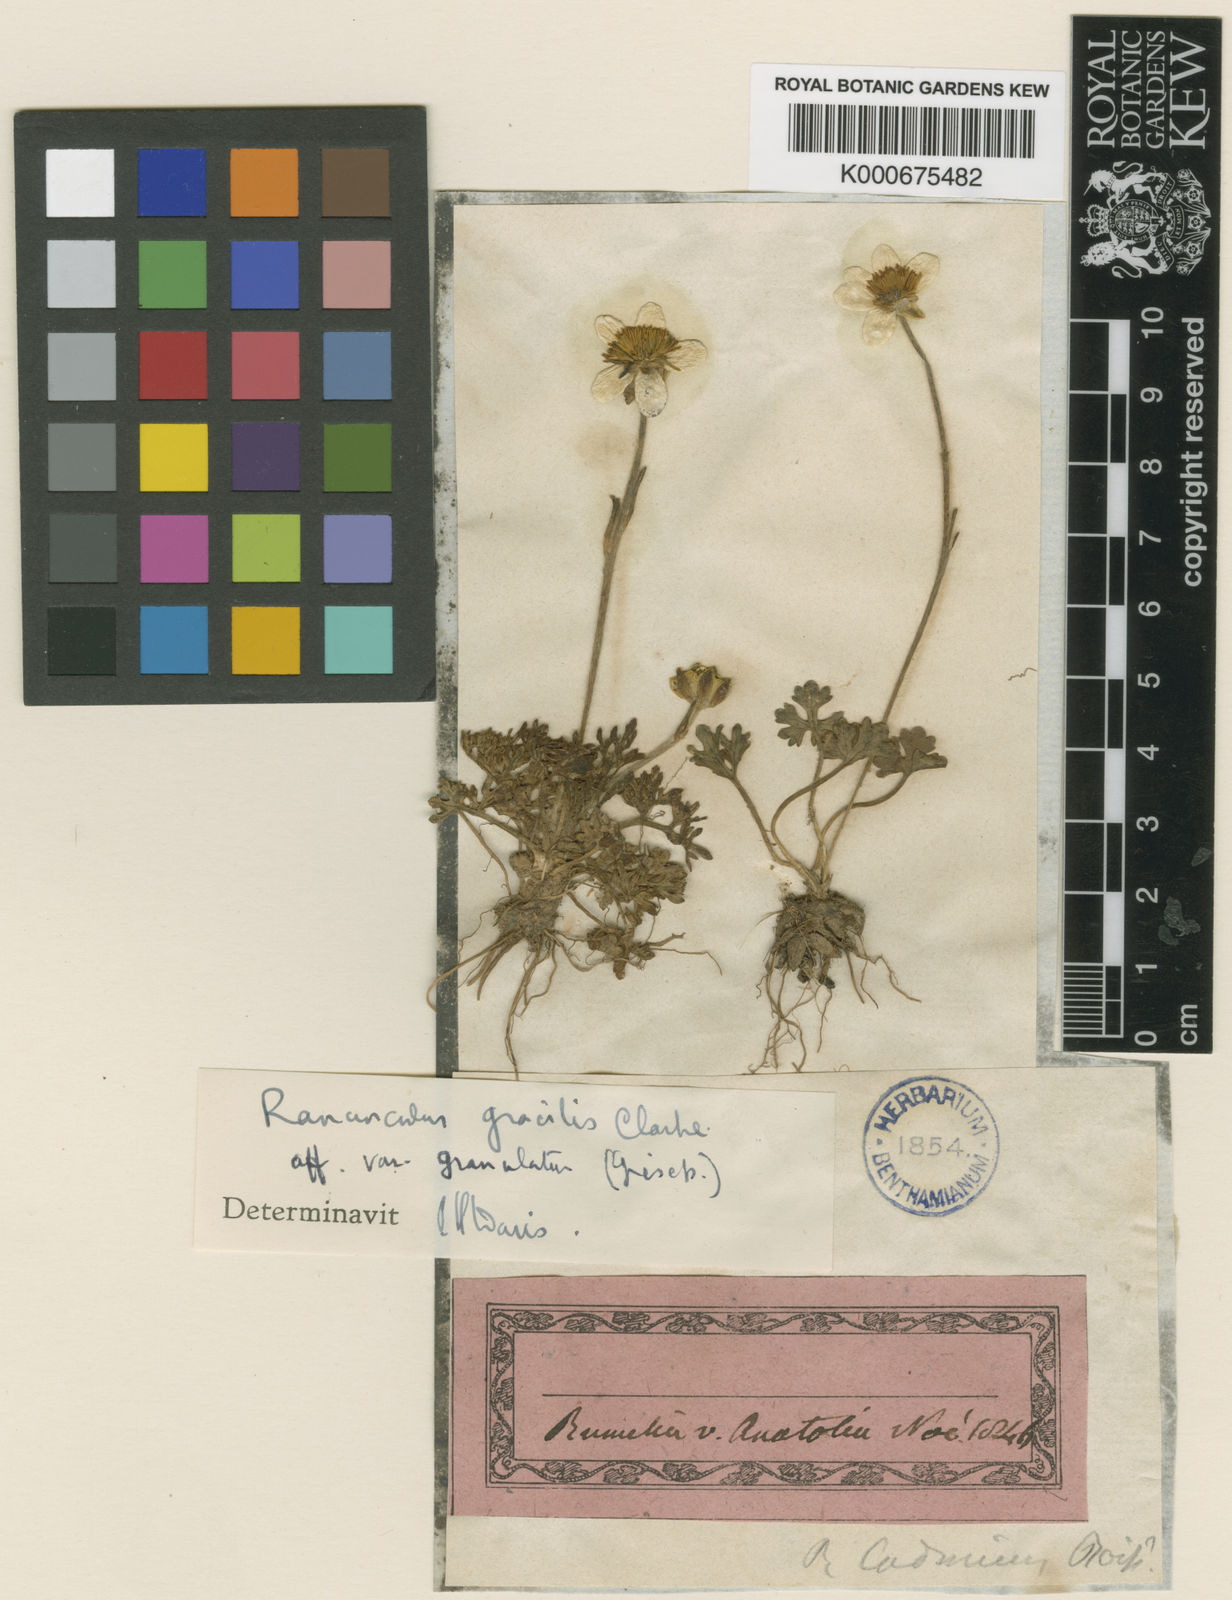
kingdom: Plantae
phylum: Tracheophyta
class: Magnoliopsida
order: Ranunculales
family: Ranunculaceae
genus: Ranunculus
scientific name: Ranunculus gracilis
